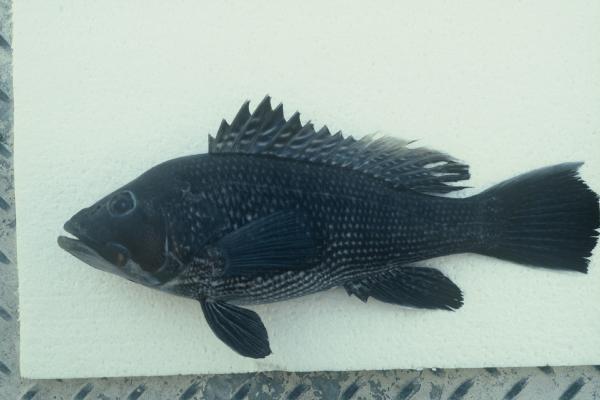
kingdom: Animalia
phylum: Chordata
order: Perciformes
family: Serranidae
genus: Centropristis
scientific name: Centropristis striata
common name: Black sea bass
